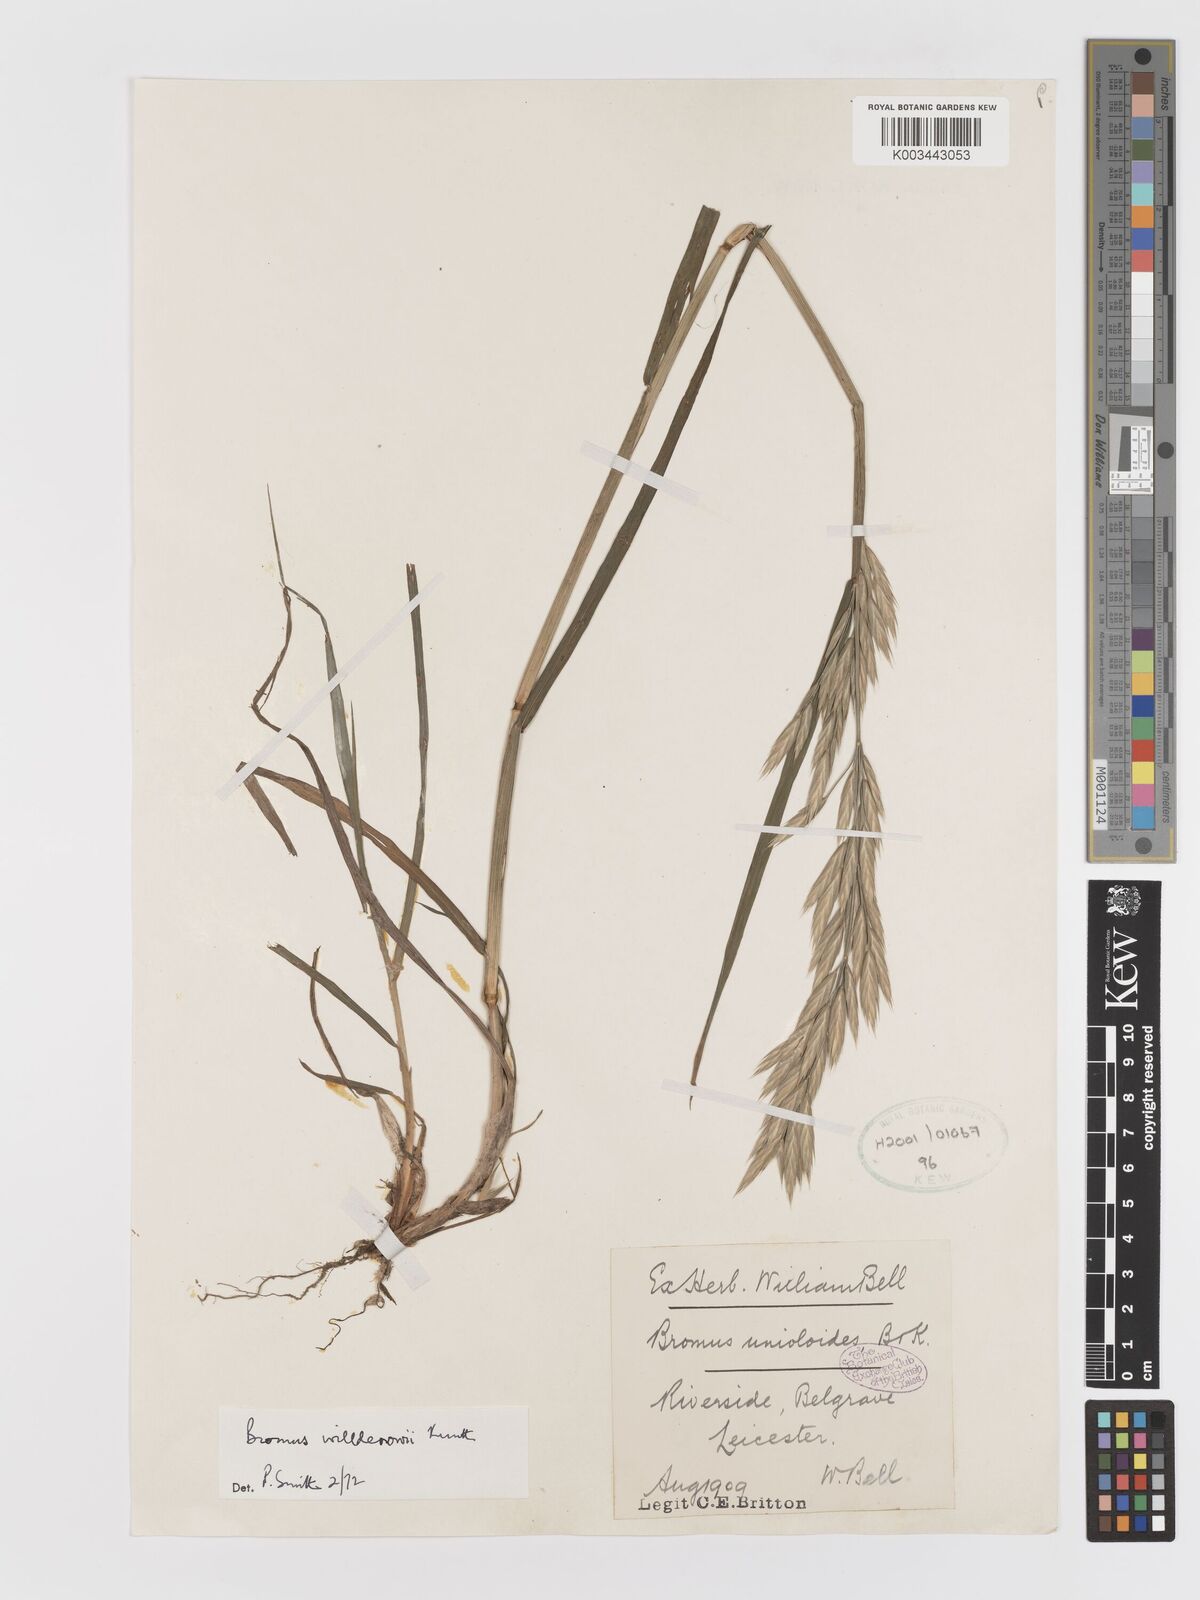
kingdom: Plantae
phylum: Tracheophyta
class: Liliopsida
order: Poales
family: Poaceae
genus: Bromus
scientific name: Bromus catharticus
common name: Rescuegrass
